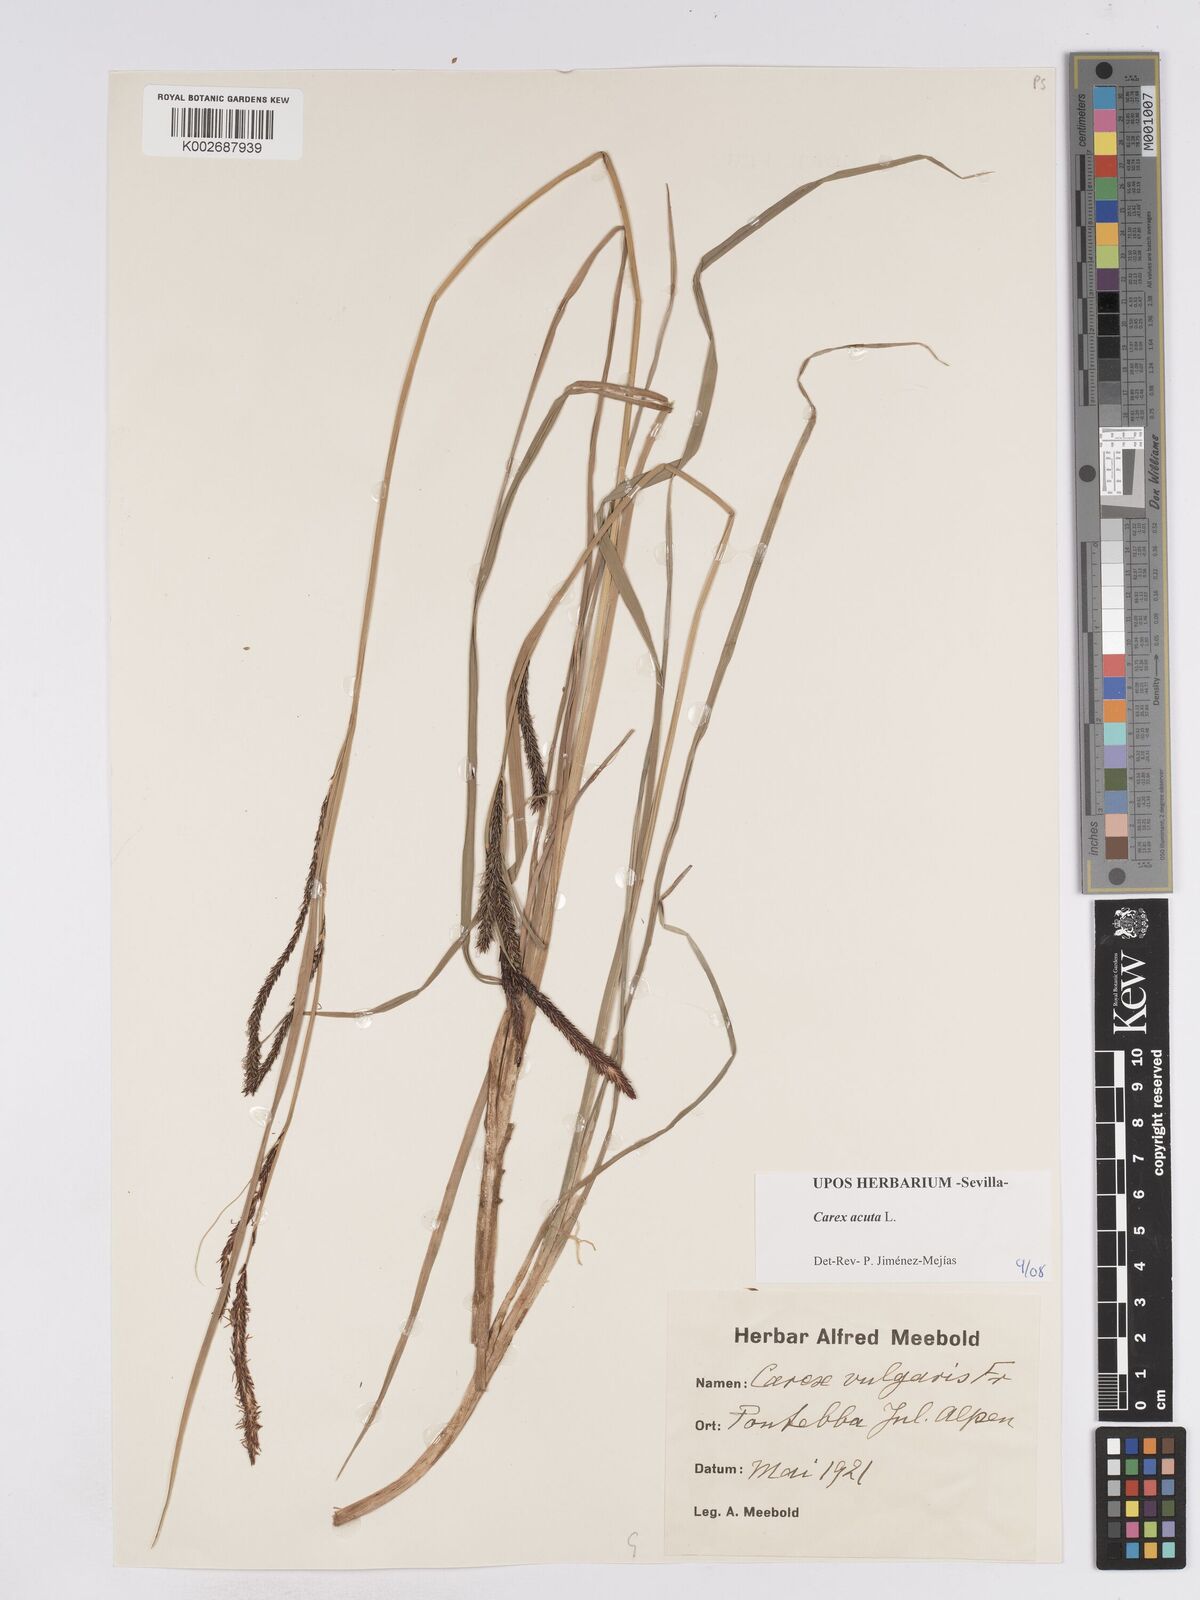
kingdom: Plantae
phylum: Tracheophyta
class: Liliopsida
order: Poales
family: Cyperaceae
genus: Carex
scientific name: Carex acuta
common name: Slender tufted-sedge
